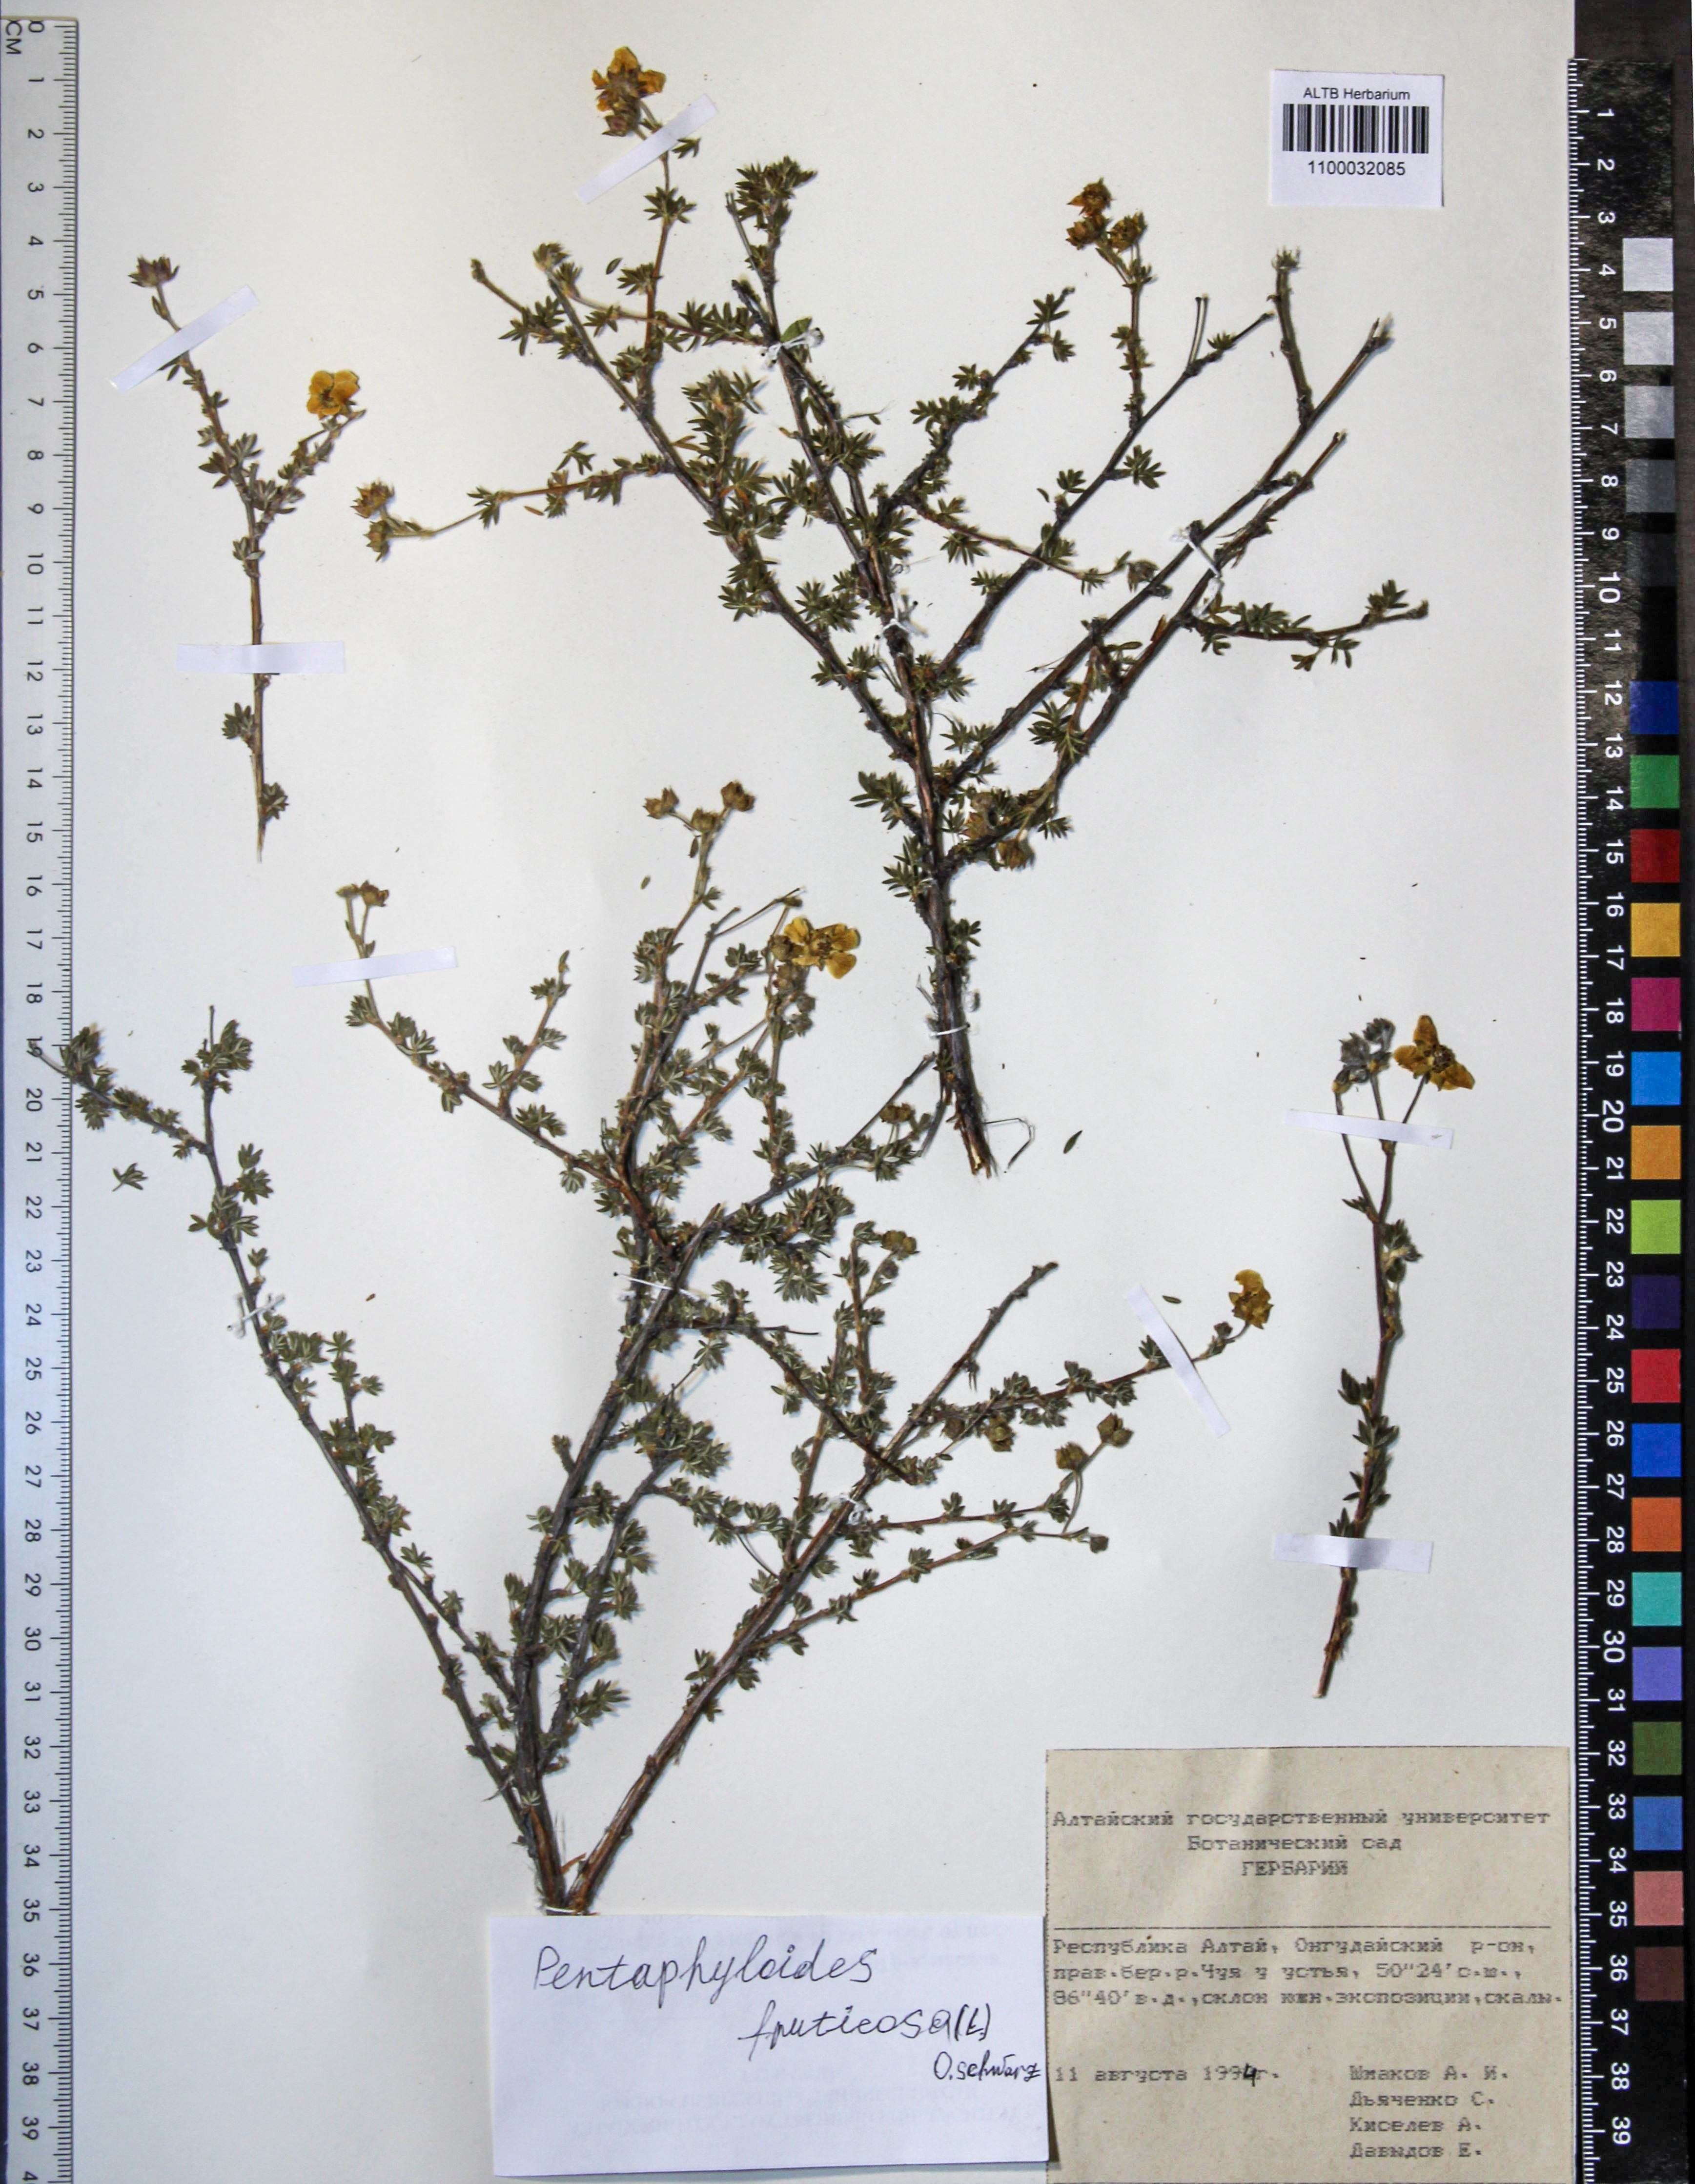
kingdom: Plantae
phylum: Tracheophyta
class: Magnoliopsida
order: Rosales
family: Rosaceae
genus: Dasiphora
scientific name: Dasiphora fruticosa
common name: Shrubby cinquefoil
